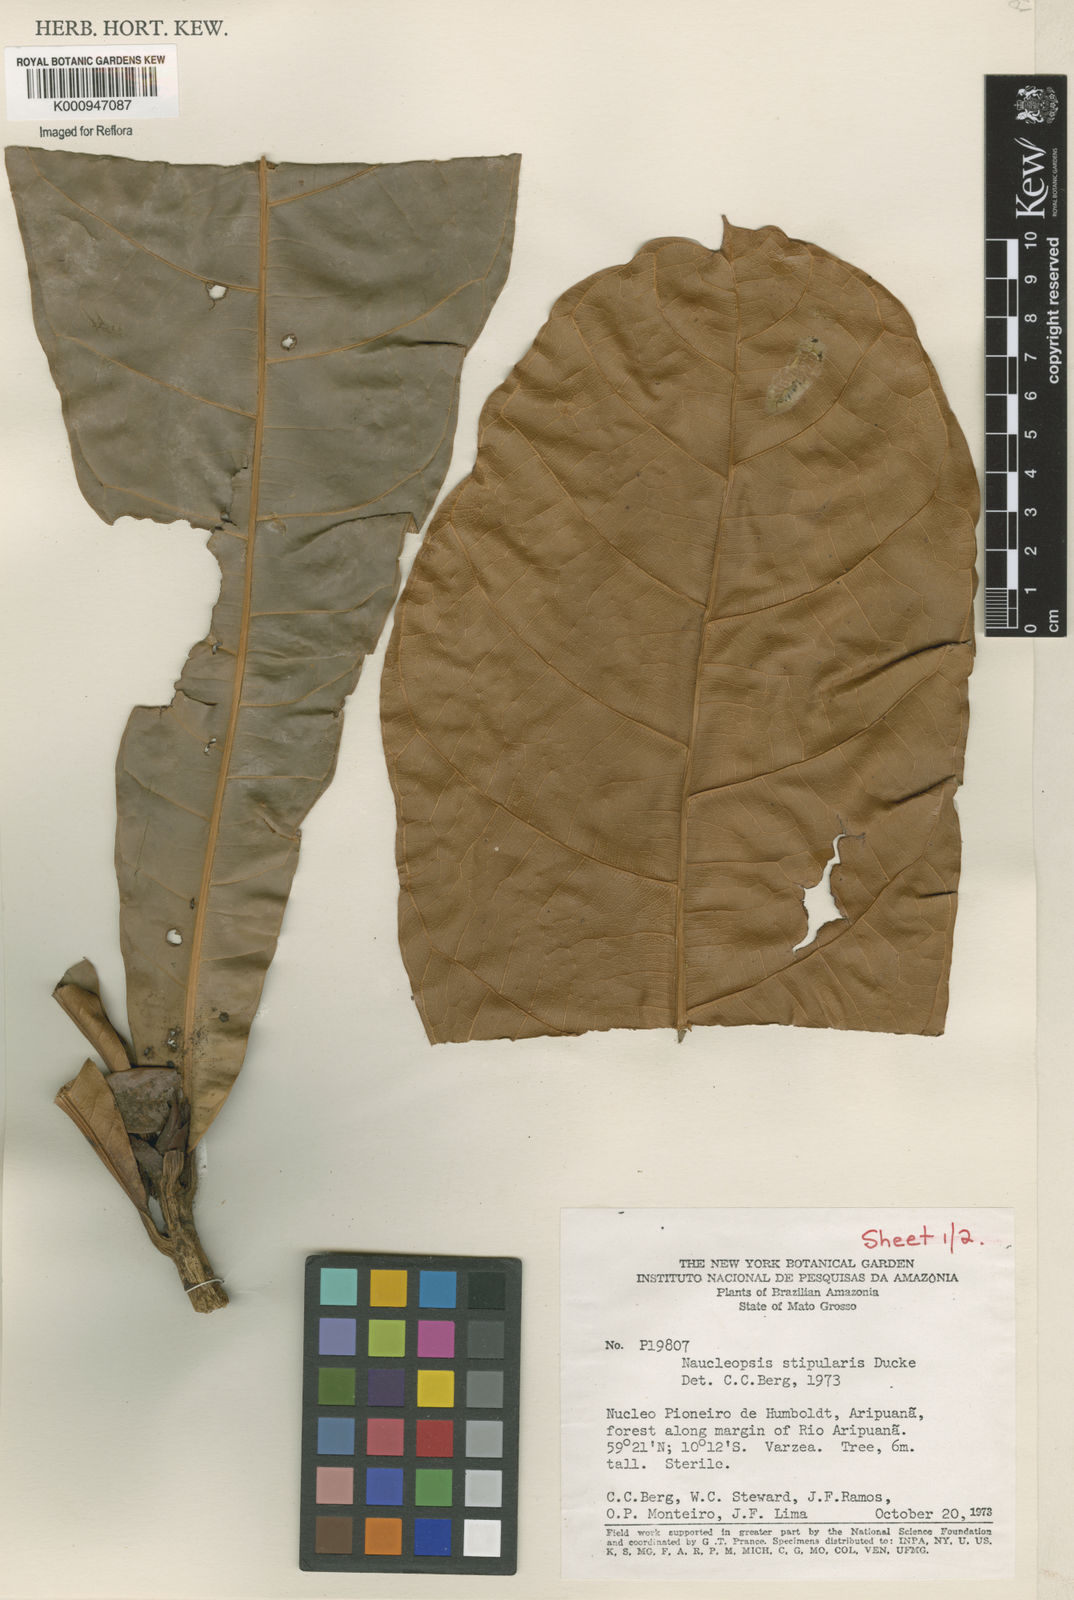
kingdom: Plantae
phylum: Tracheophyta
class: Magnoliopsida
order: Rosales
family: Moraceae
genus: Naucleopsis
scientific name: Naucleopsis stipularis
